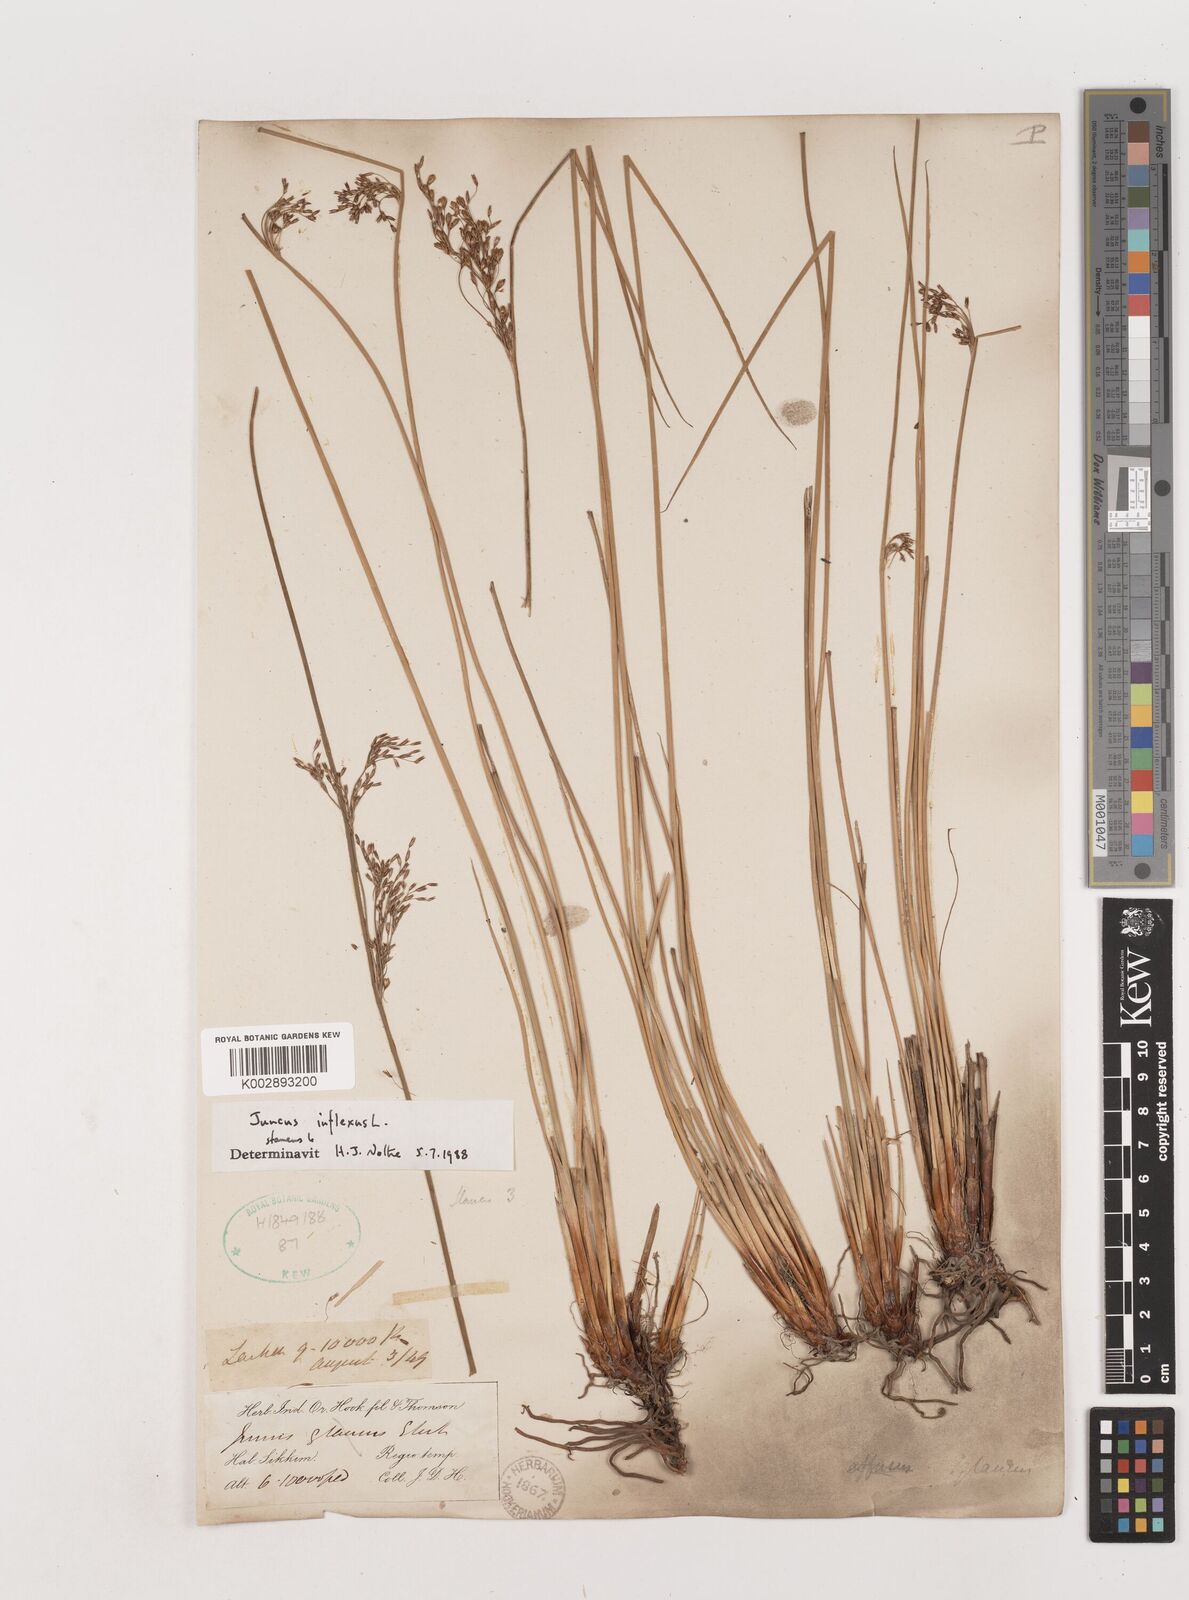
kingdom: Plantae
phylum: Tracheophyta
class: Liliopsida
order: Poales
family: Juncaceae
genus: Juncus
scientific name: Juncus inflexus
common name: Hard rush
